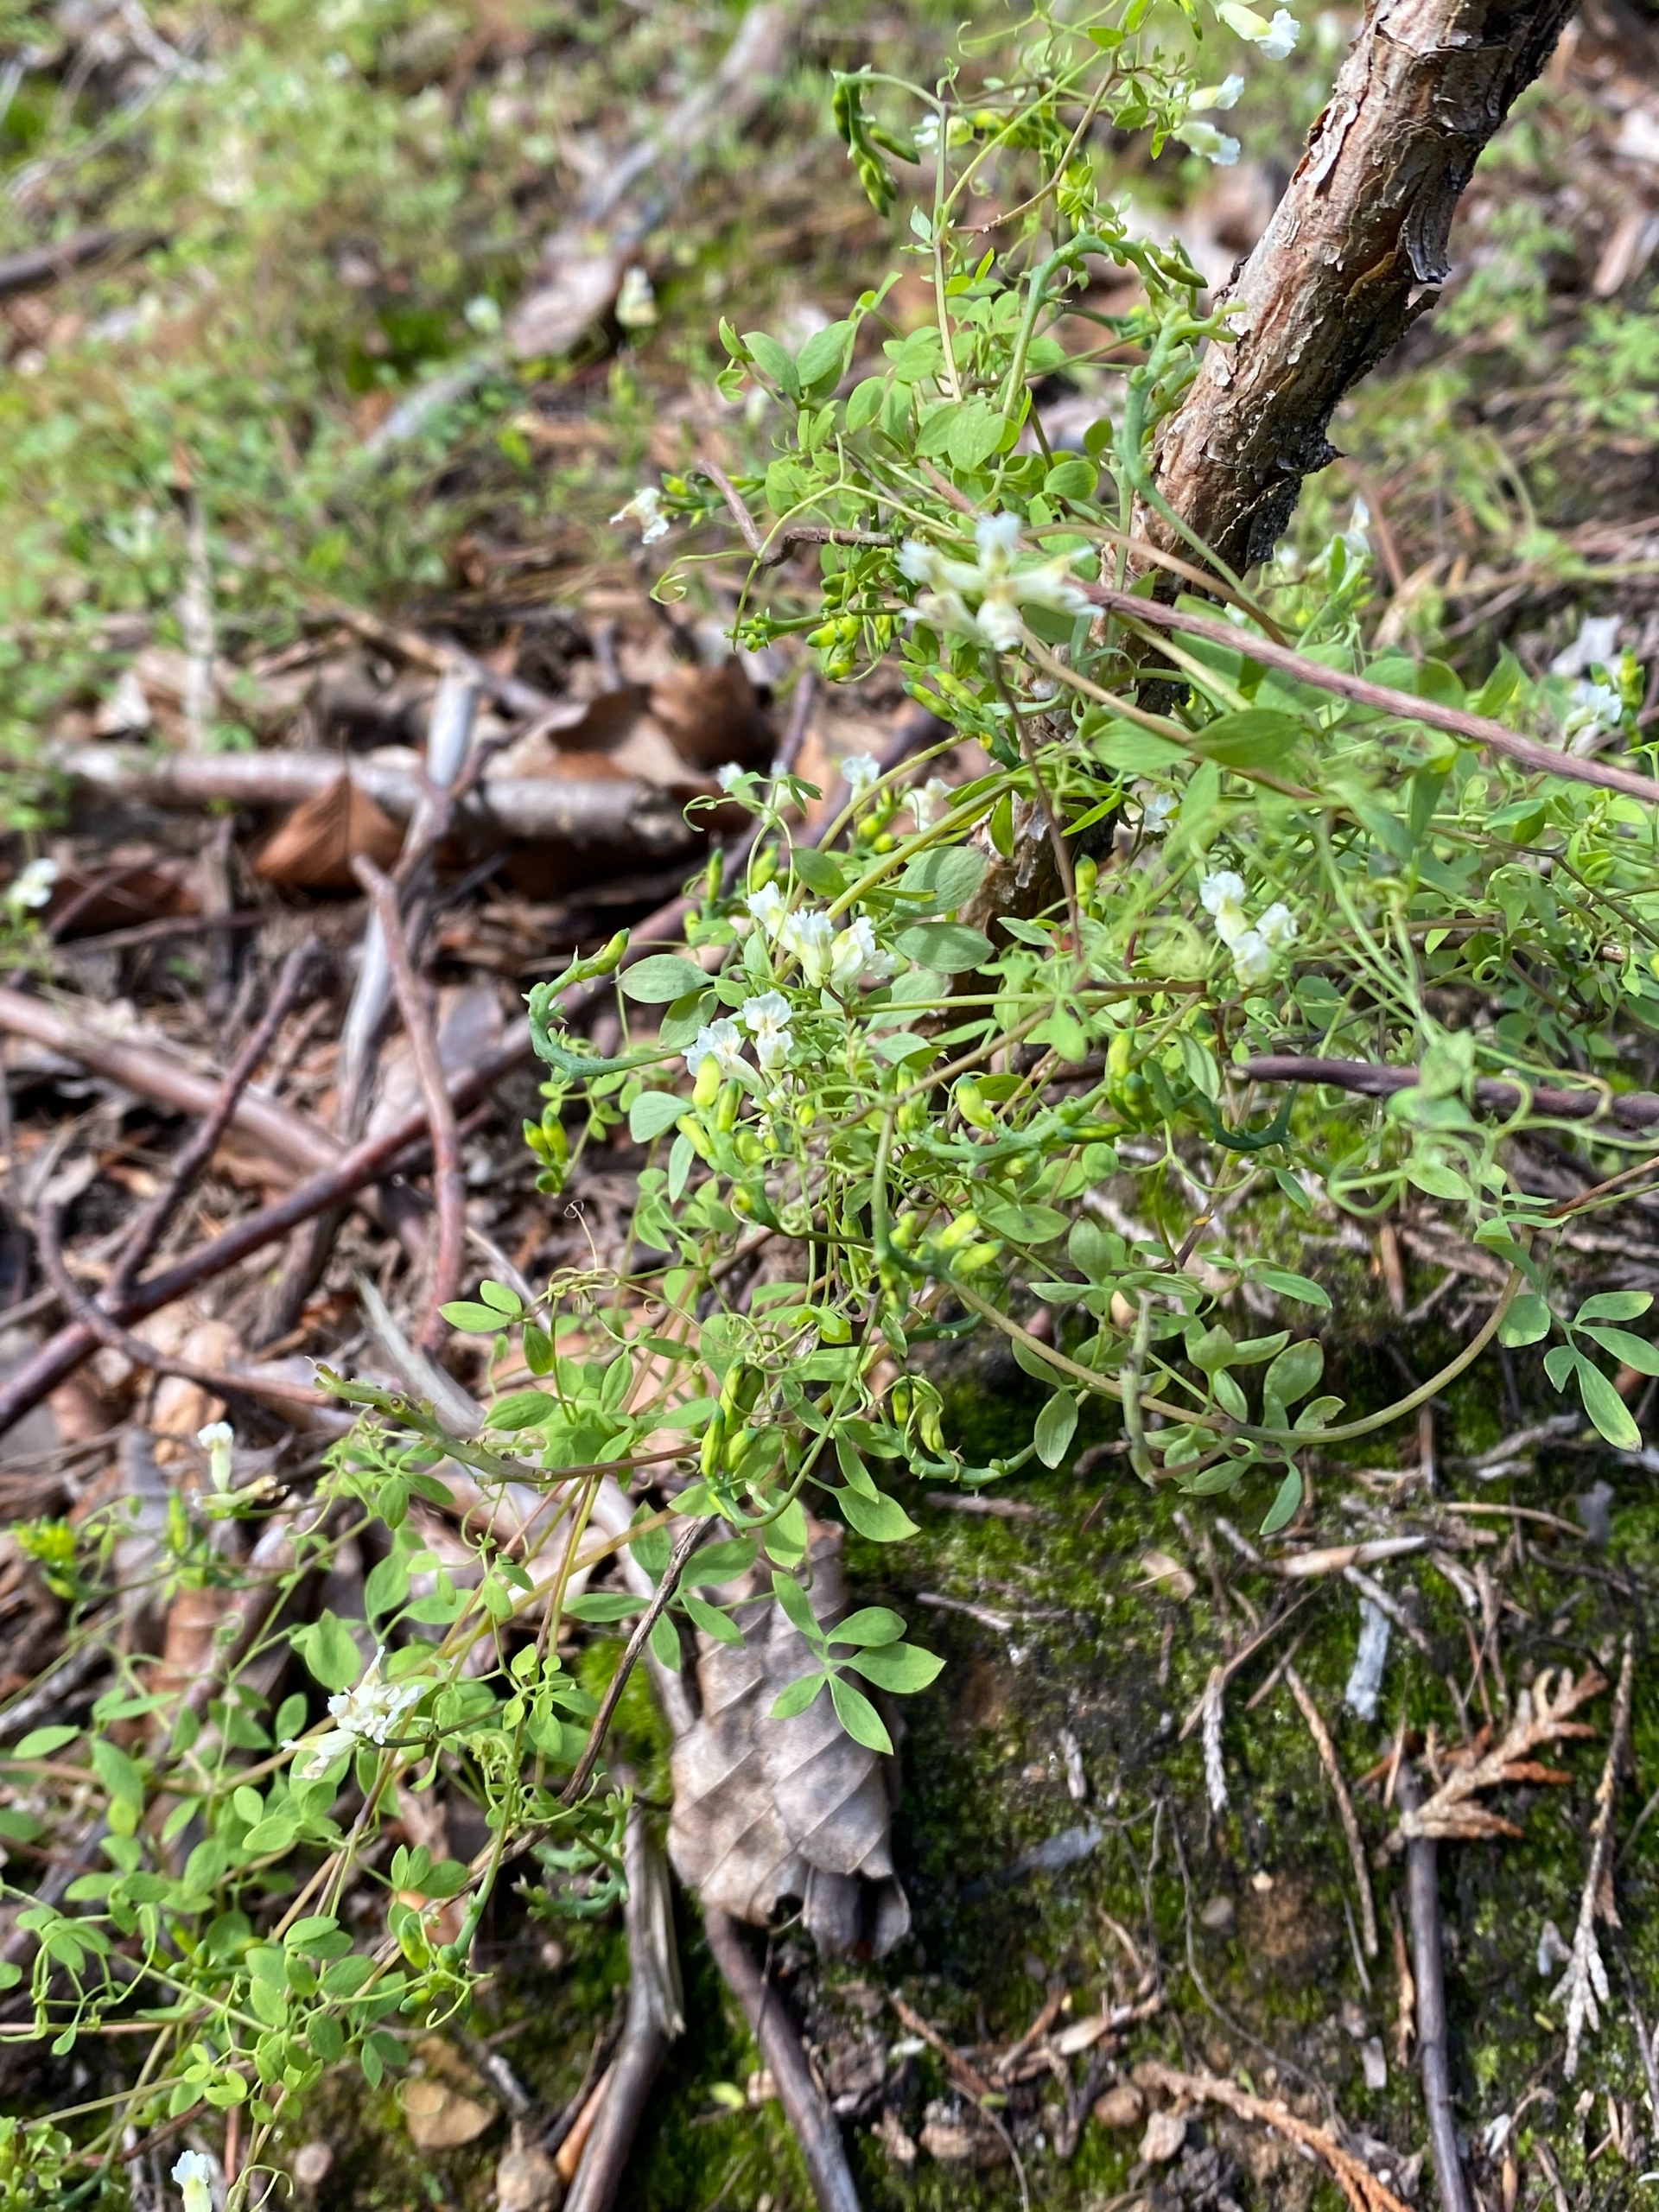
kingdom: Plantae
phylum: Tracheophyta
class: Magnoliopsida
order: Ranunculales
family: Papaveraceae
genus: Ceratocapnos
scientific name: Ceratocapnos claviculata
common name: Klatrende lærkespore
